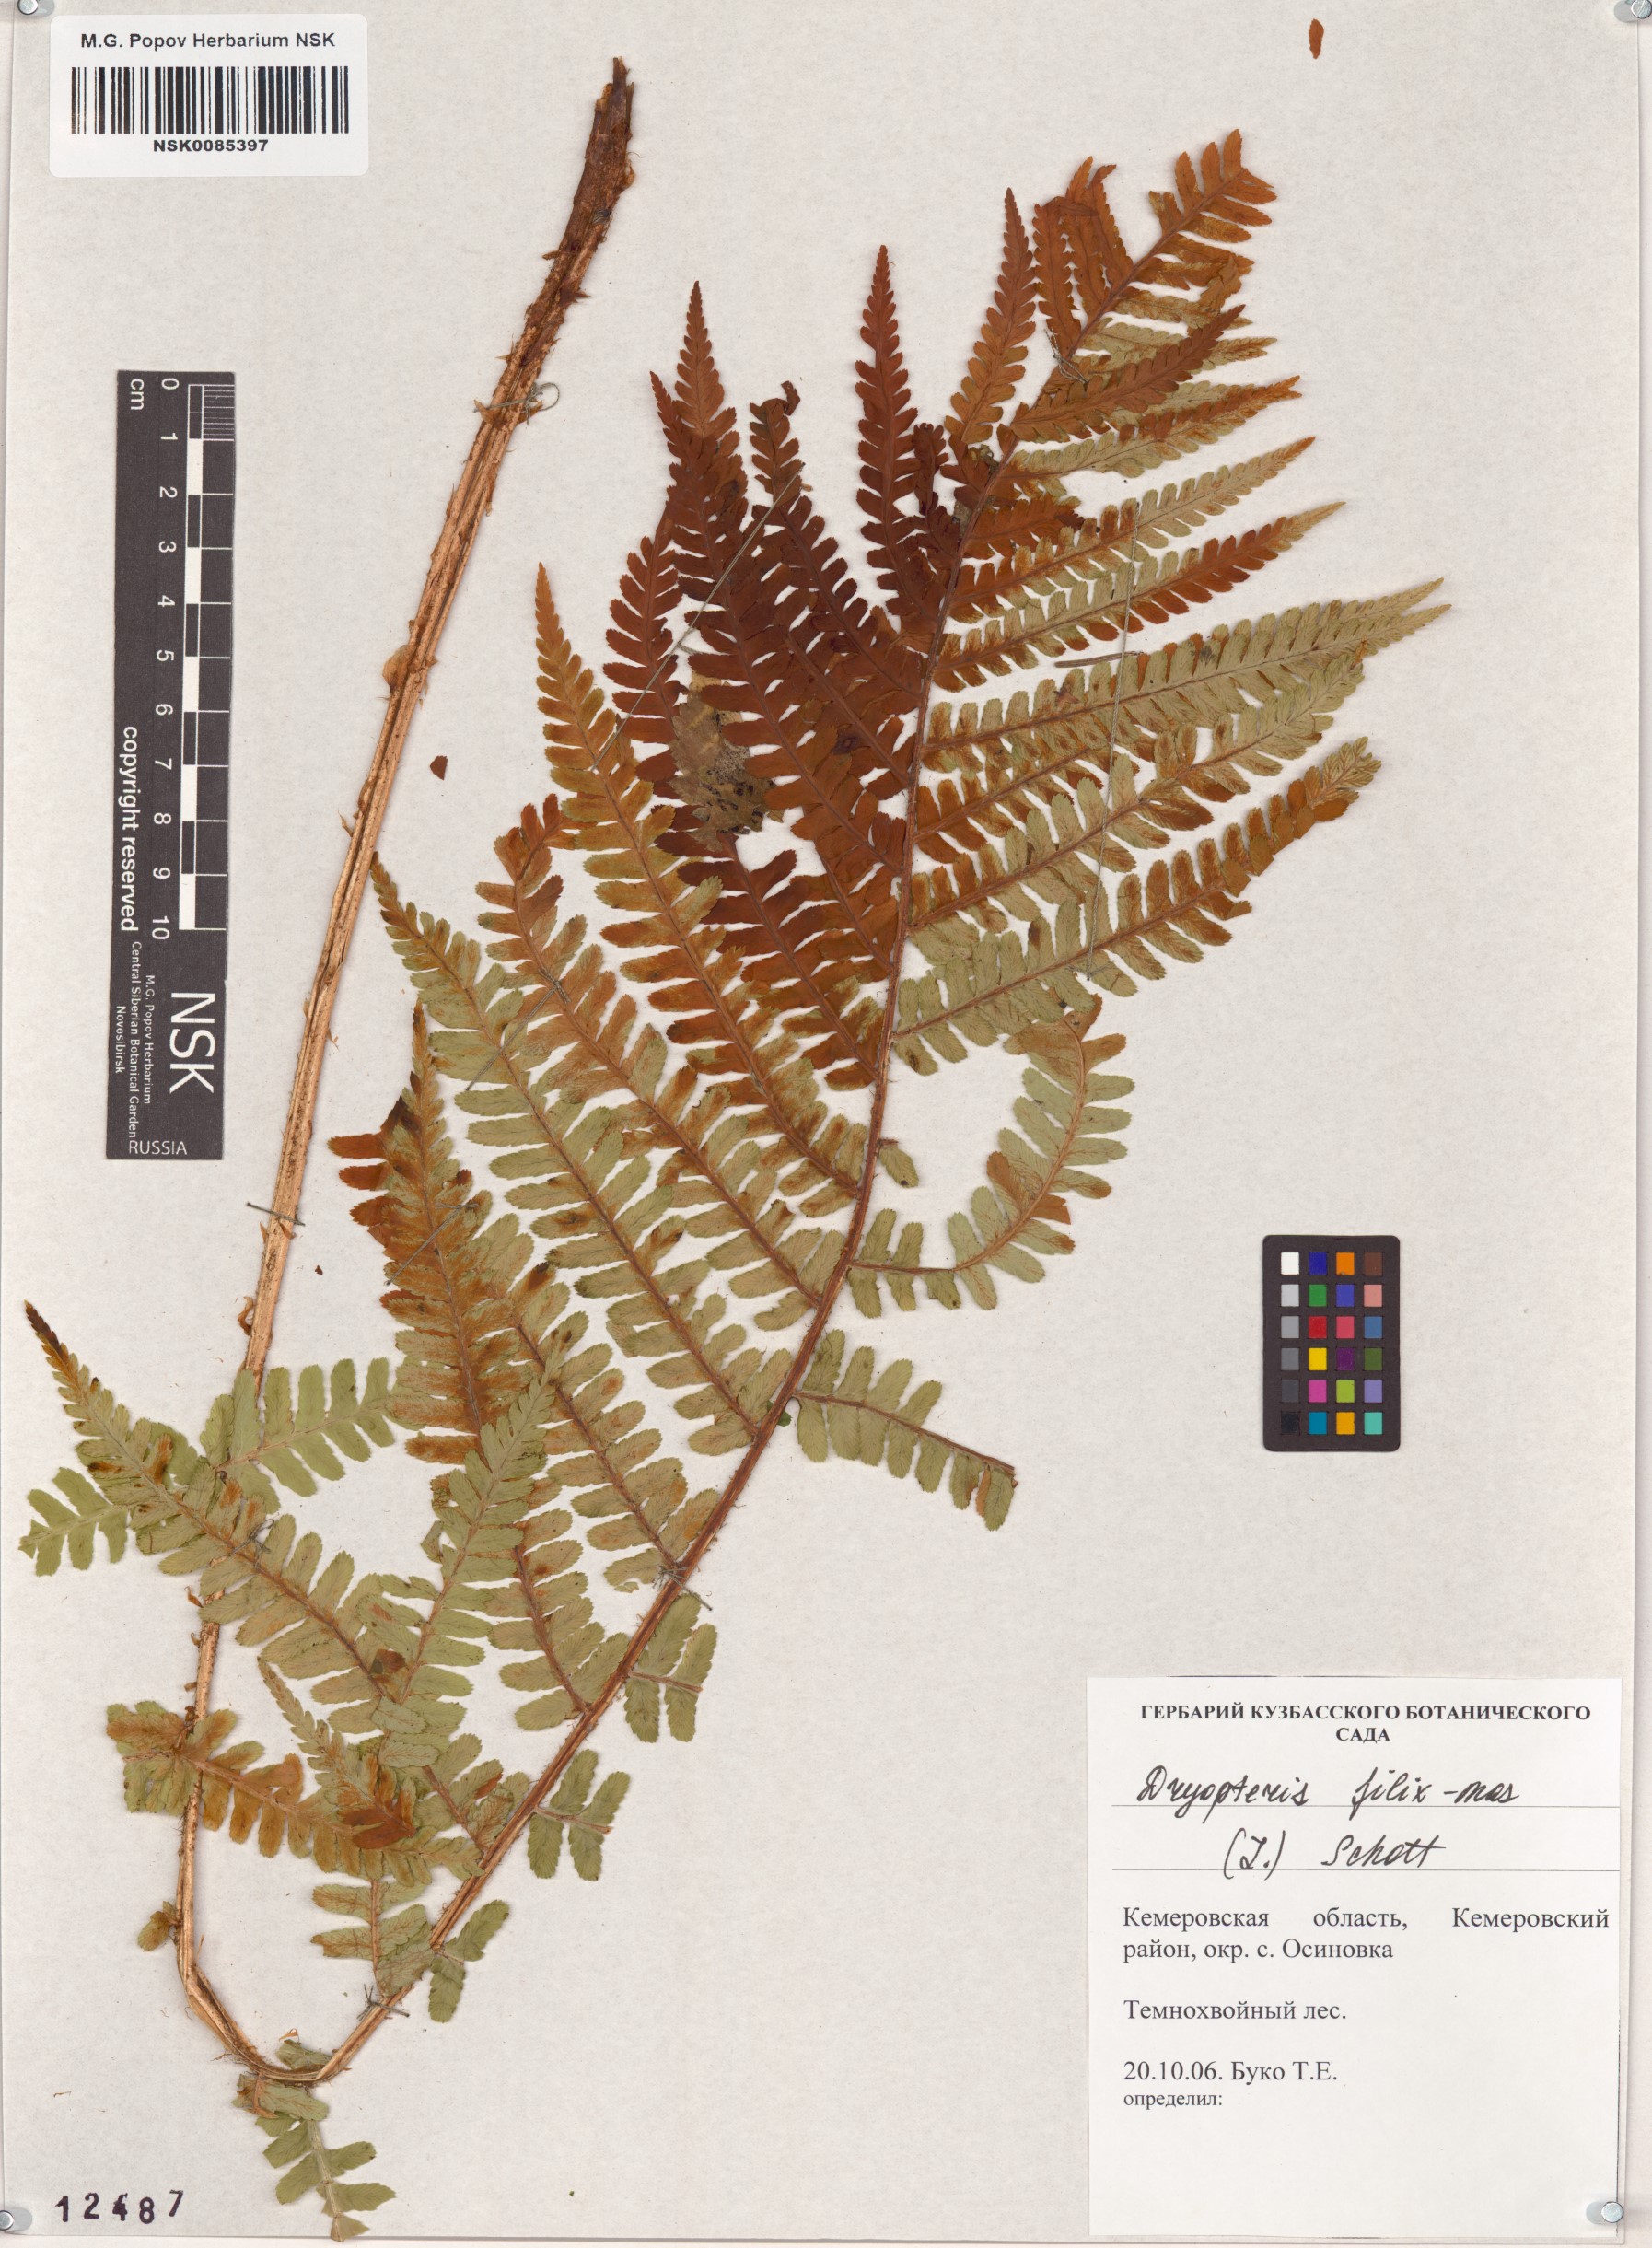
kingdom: Plantae
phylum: Tracheophyta
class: Polypodiopsida
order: Polypodiales
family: Dryopteridaceae
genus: Dryopteris
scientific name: Dryopteris filix-mas
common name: Male fern
